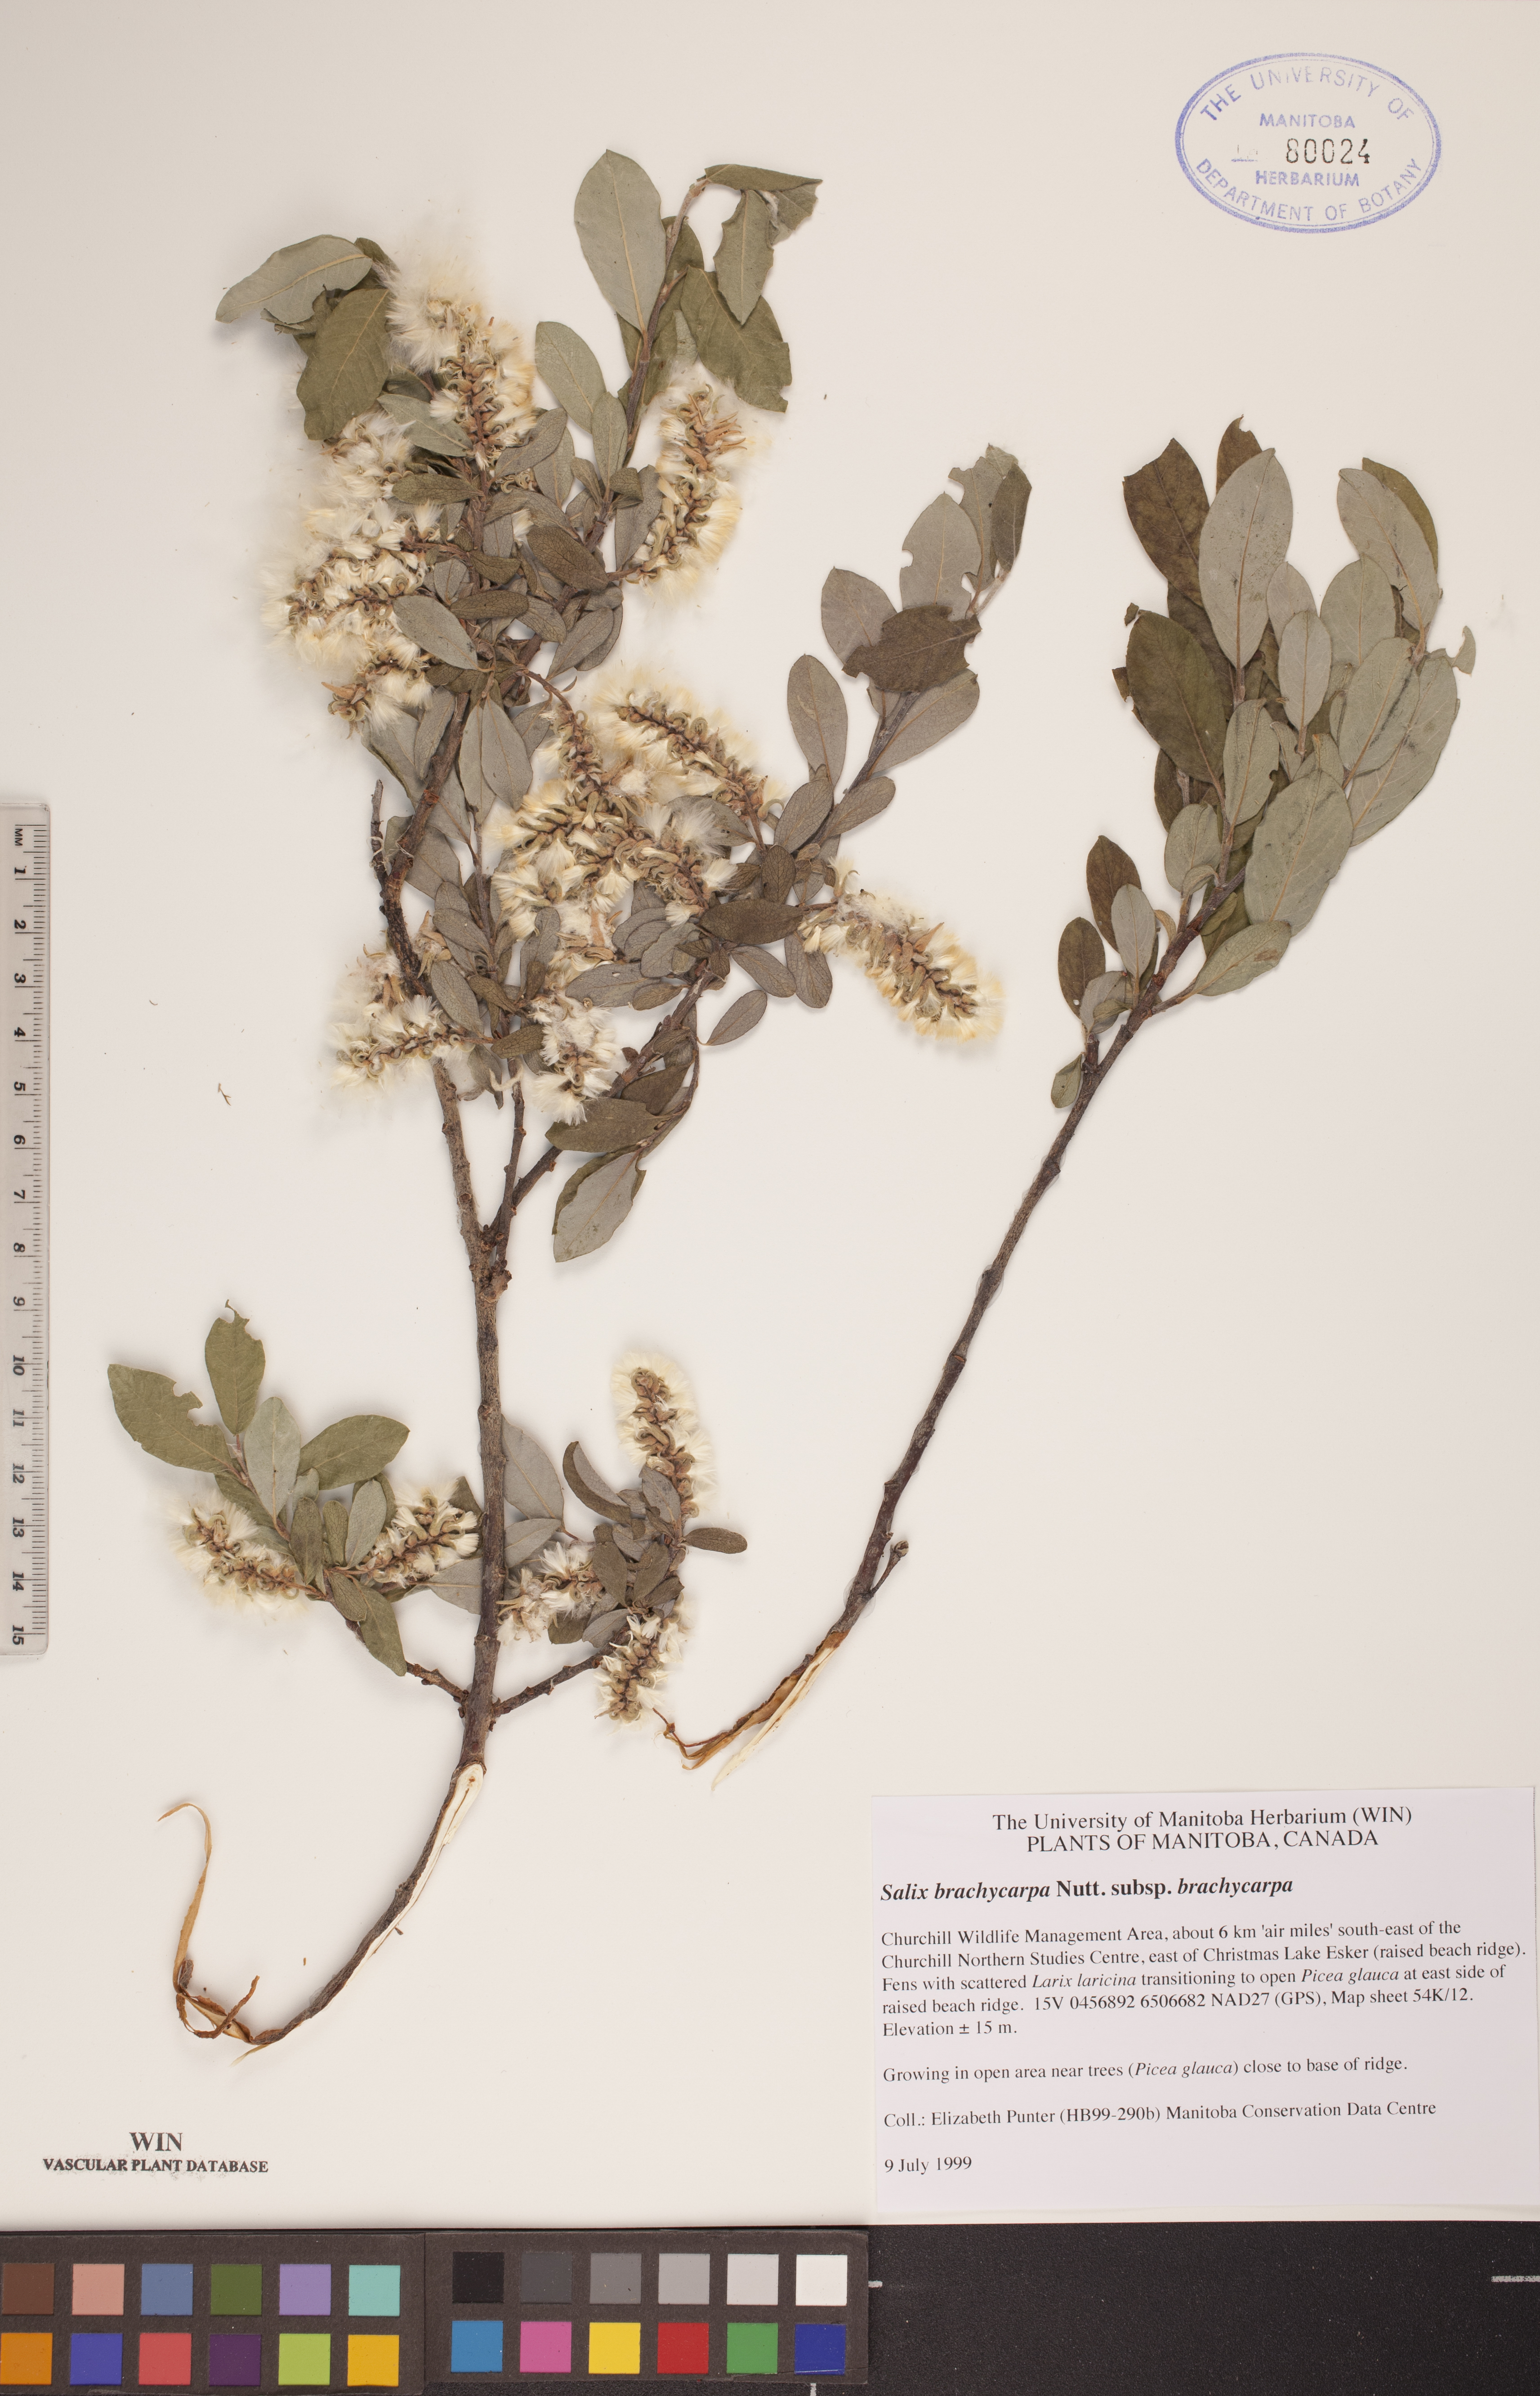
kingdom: Plantae
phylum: Tracheophyta
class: Magnoliopsida
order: Malpighiales
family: Salicaceae
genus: Salix
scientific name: Salix brachycarpa
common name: Barren-ground willow
